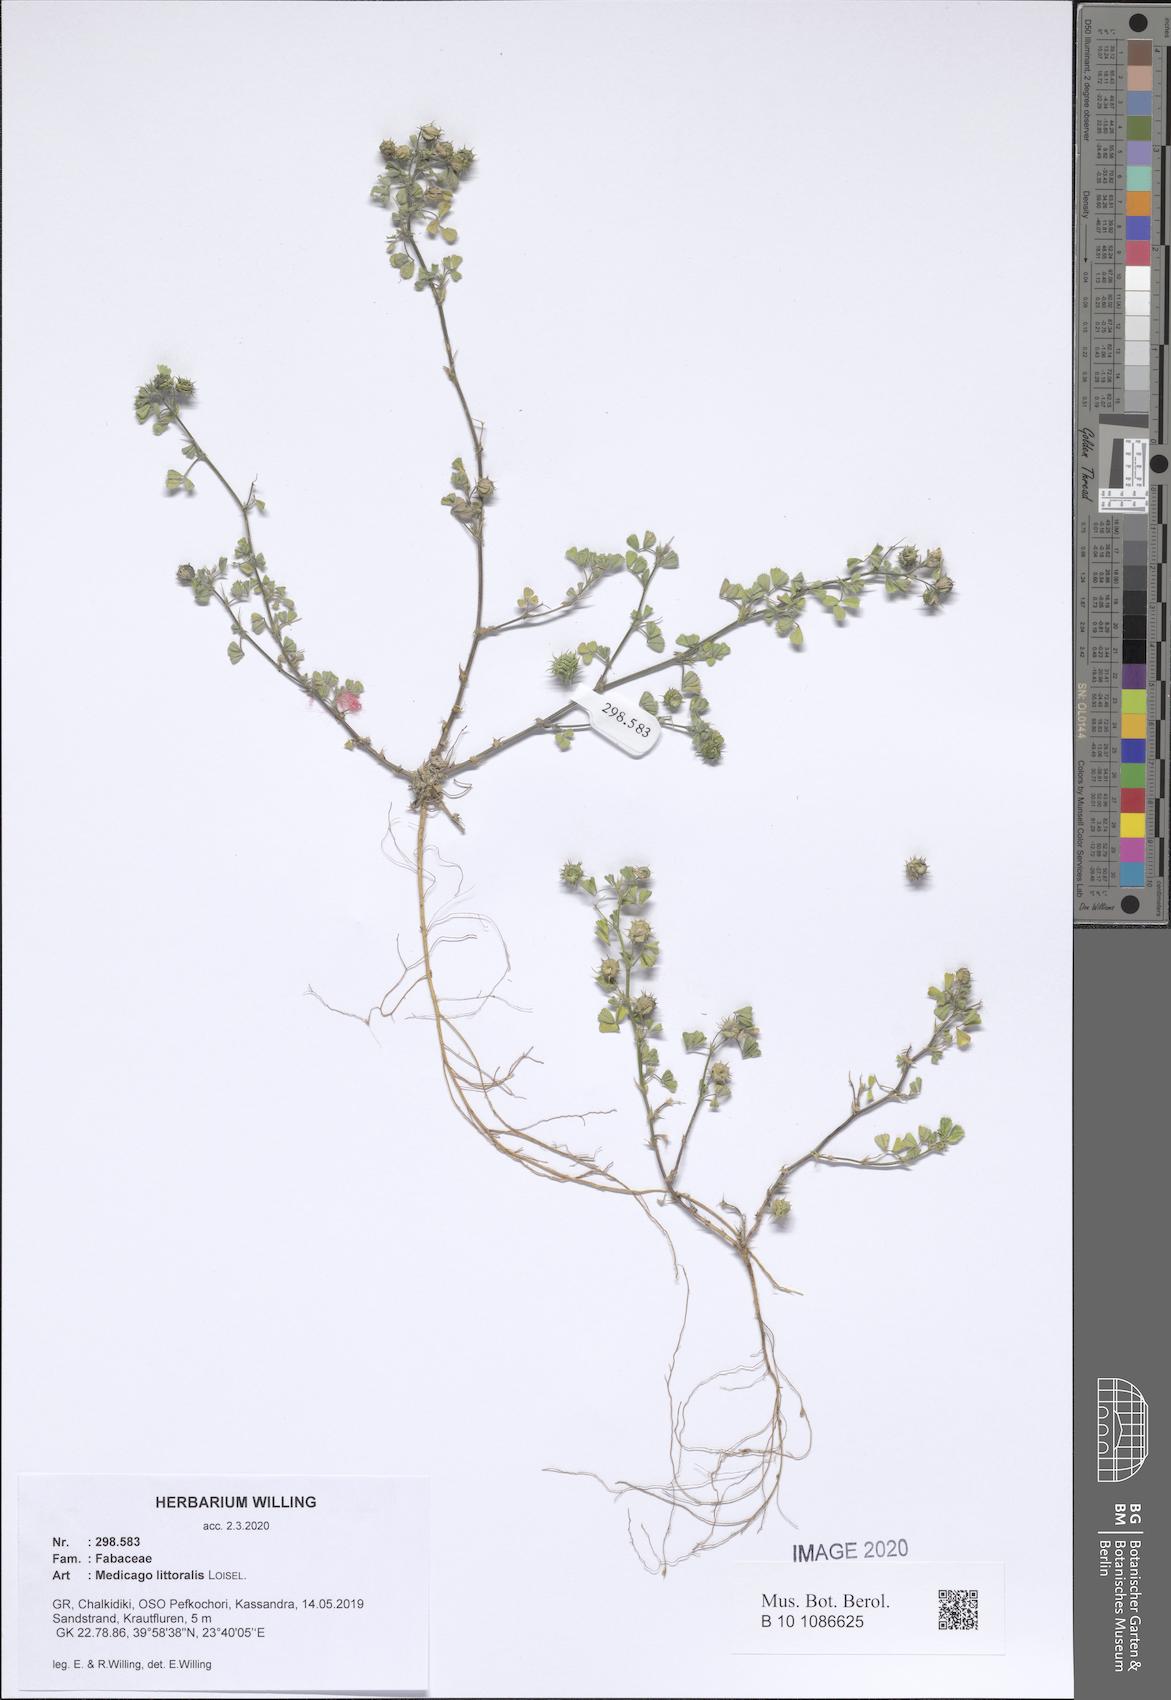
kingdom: Plantae
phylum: Tracheophyta
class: Magnoliopsida
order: Fabales
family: Fabaceae
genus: Medicago
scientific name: Medicago littoralis
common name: Shore medick
